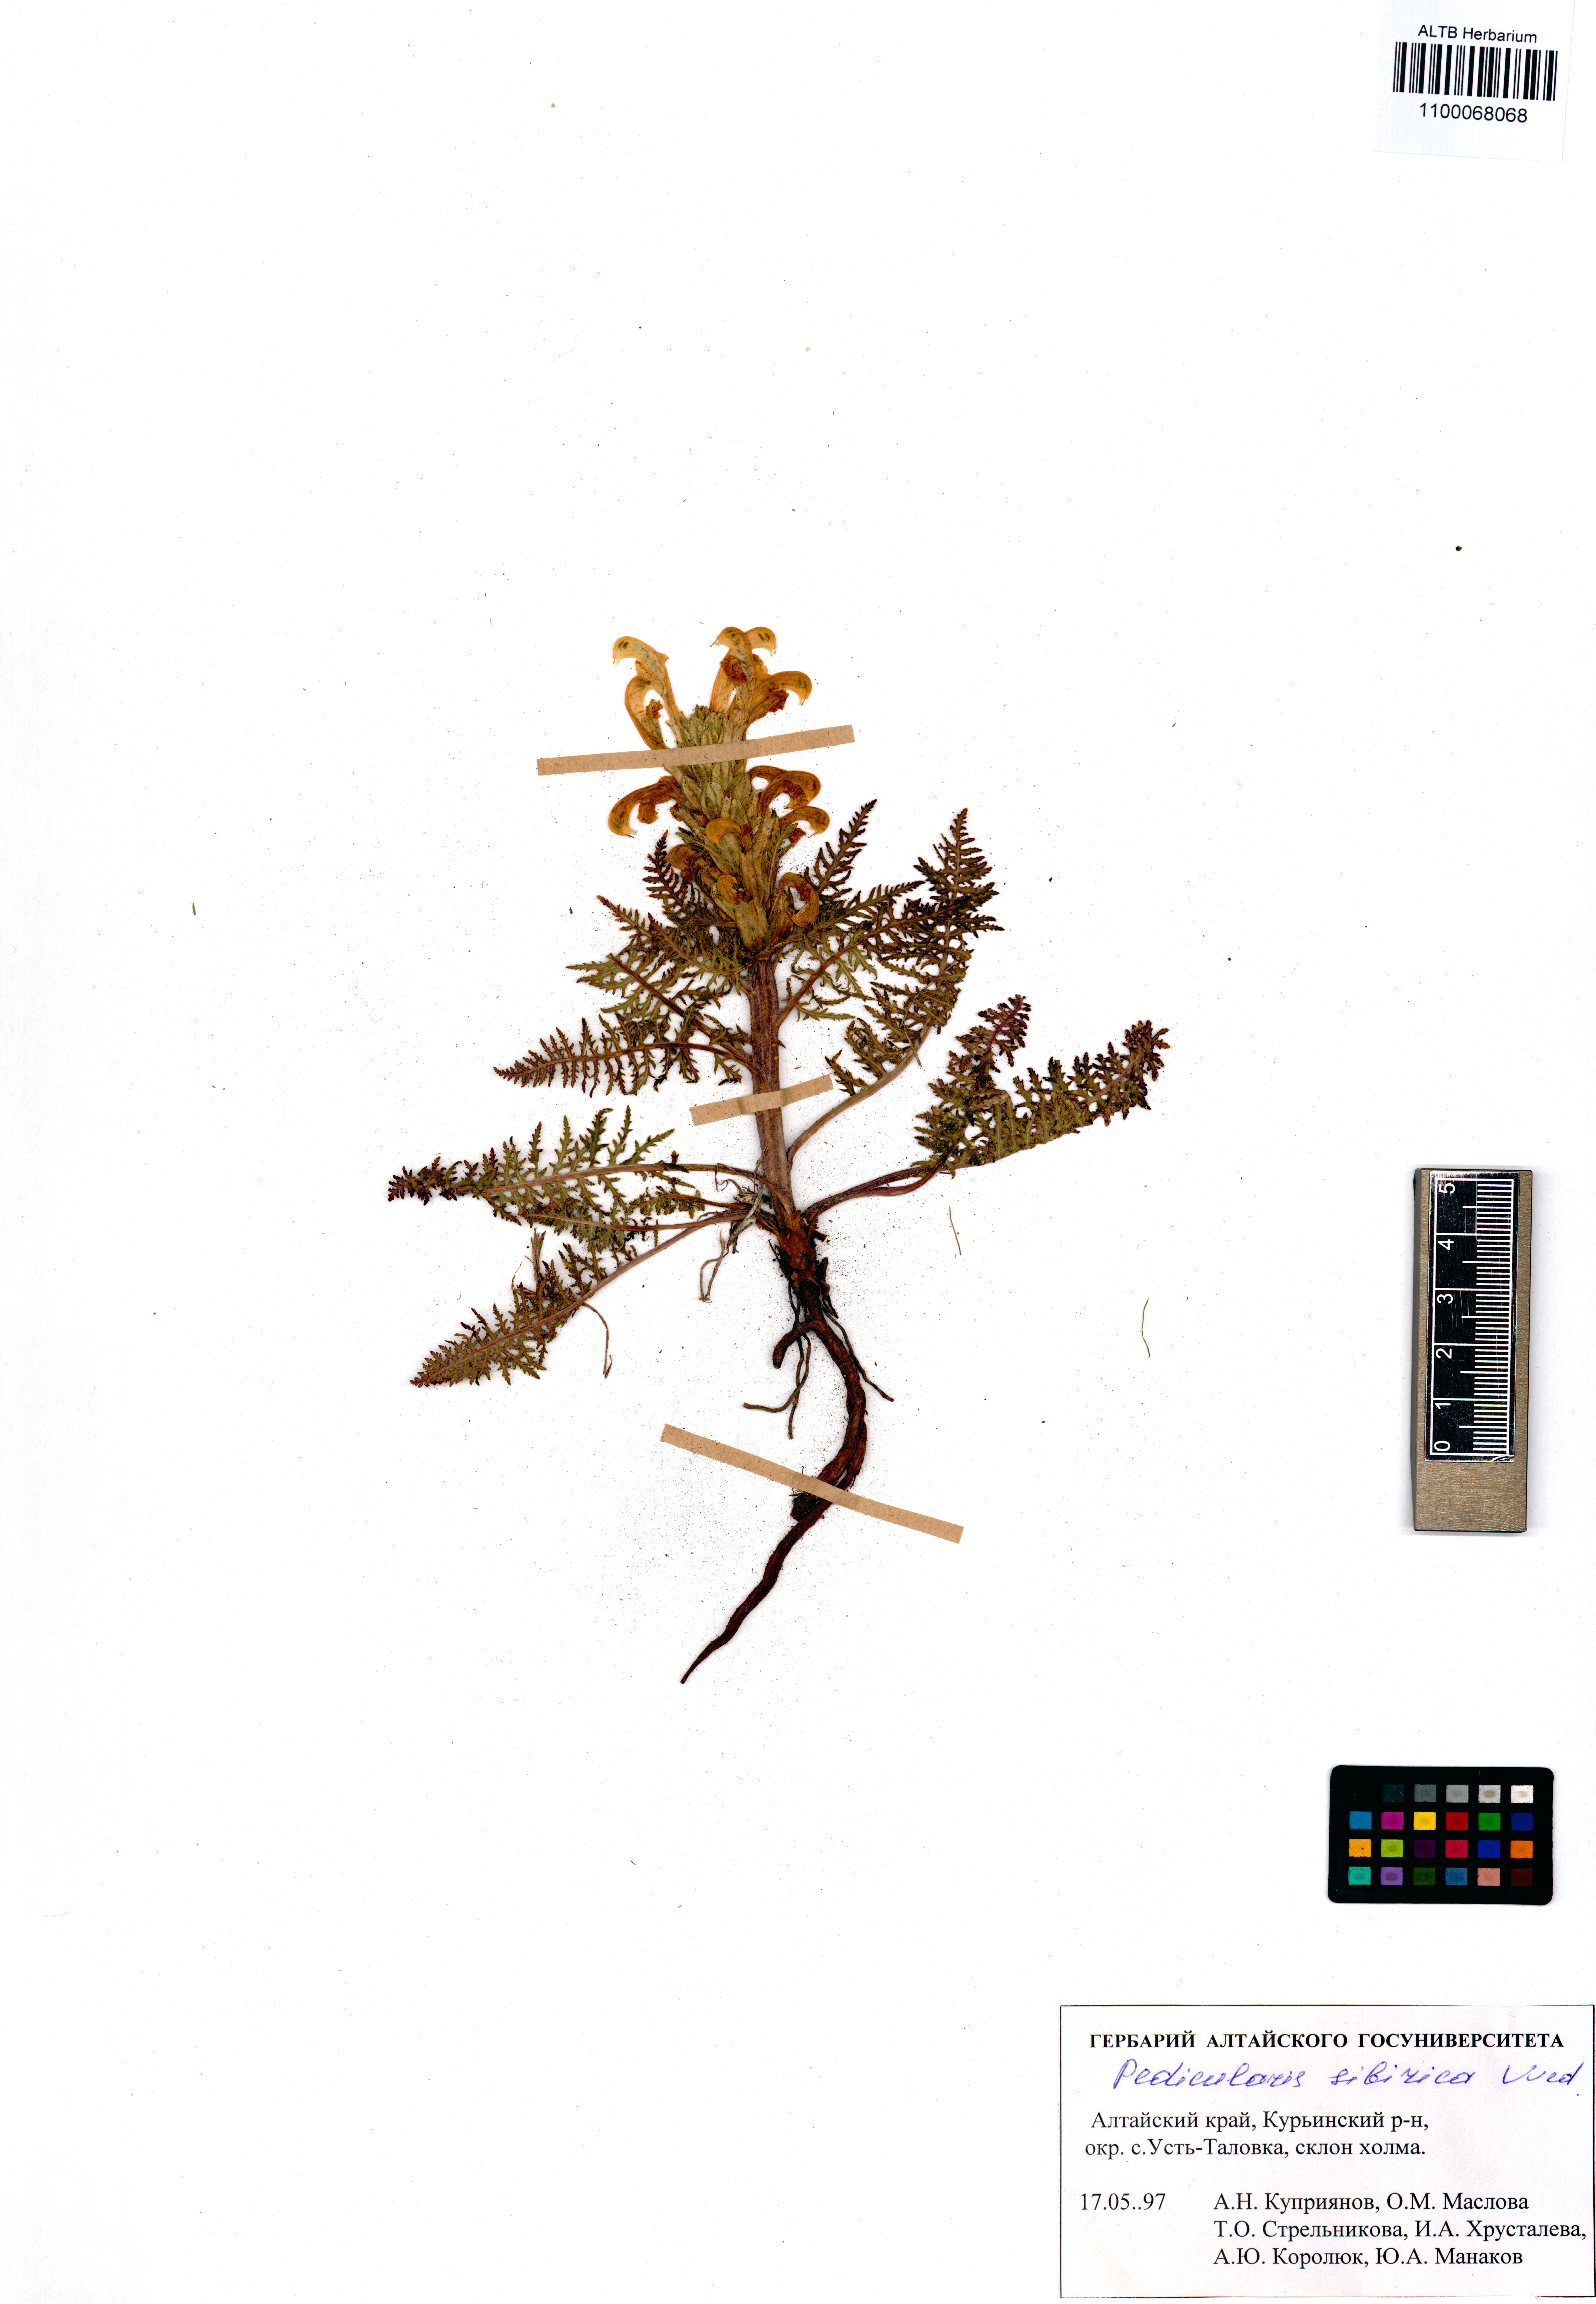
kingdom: Plantae
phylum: Tracheophyta
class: Magnoliopsida
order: Lamiales
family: Orobanchaceae
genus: Pedicularis
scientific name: Pedicularis sibirica
